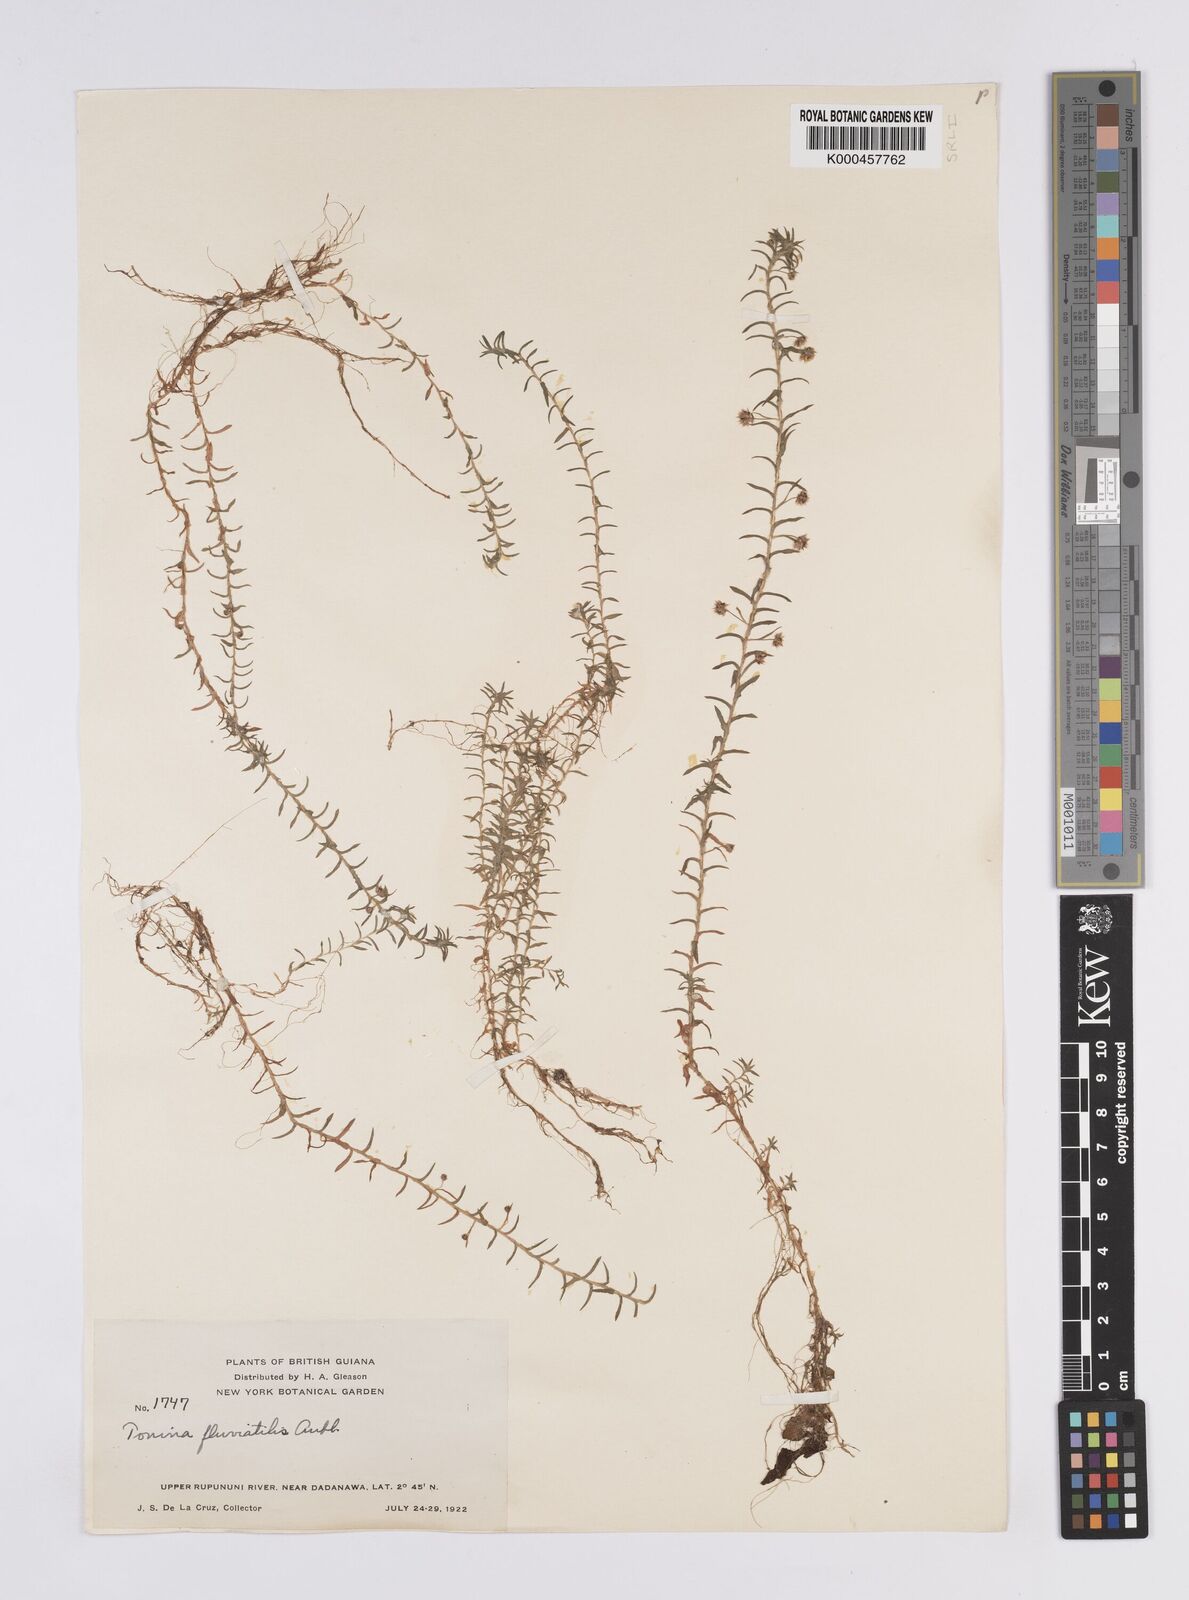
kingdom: Plantae
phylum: Tracheophyta
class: Liliopsida
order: Poales
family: Eriocaulaceae
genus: Paepalanthus
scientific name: Paepalanthus fluviatilis
